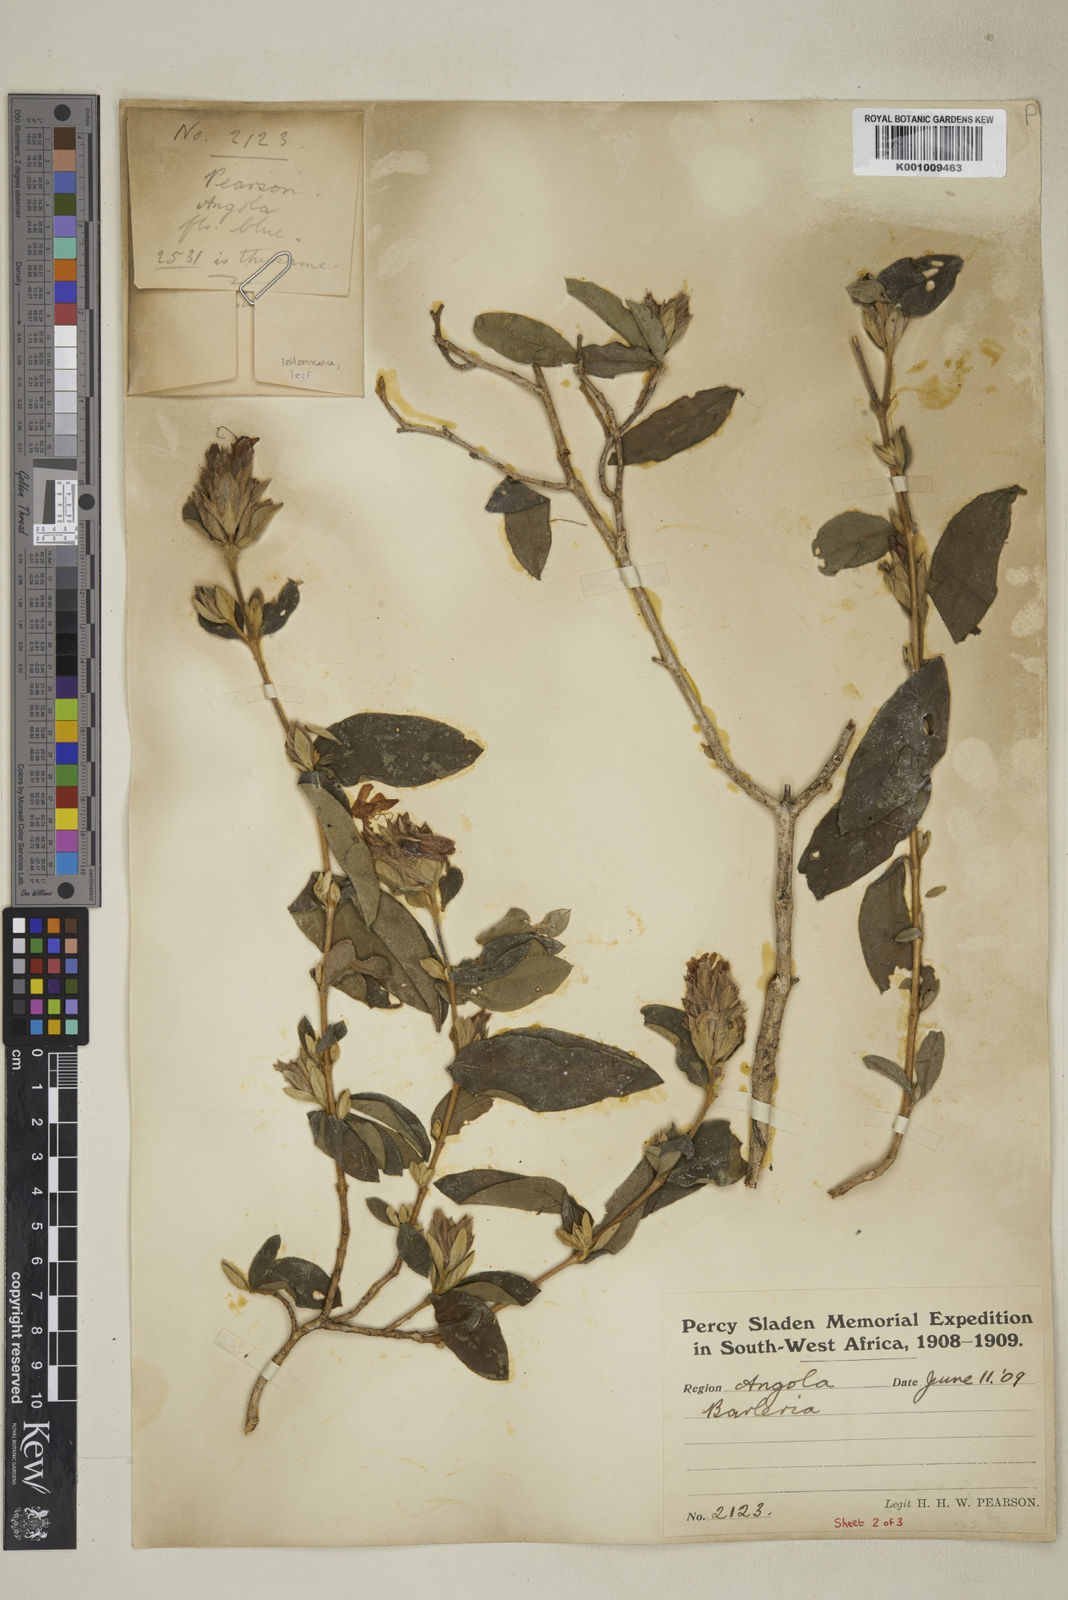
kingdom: Plantae
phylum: Tracheophyta
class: Magnoliopsida
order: Lamiales
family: Acanthaceae
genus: Barleria
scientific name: Barleria taitensis
